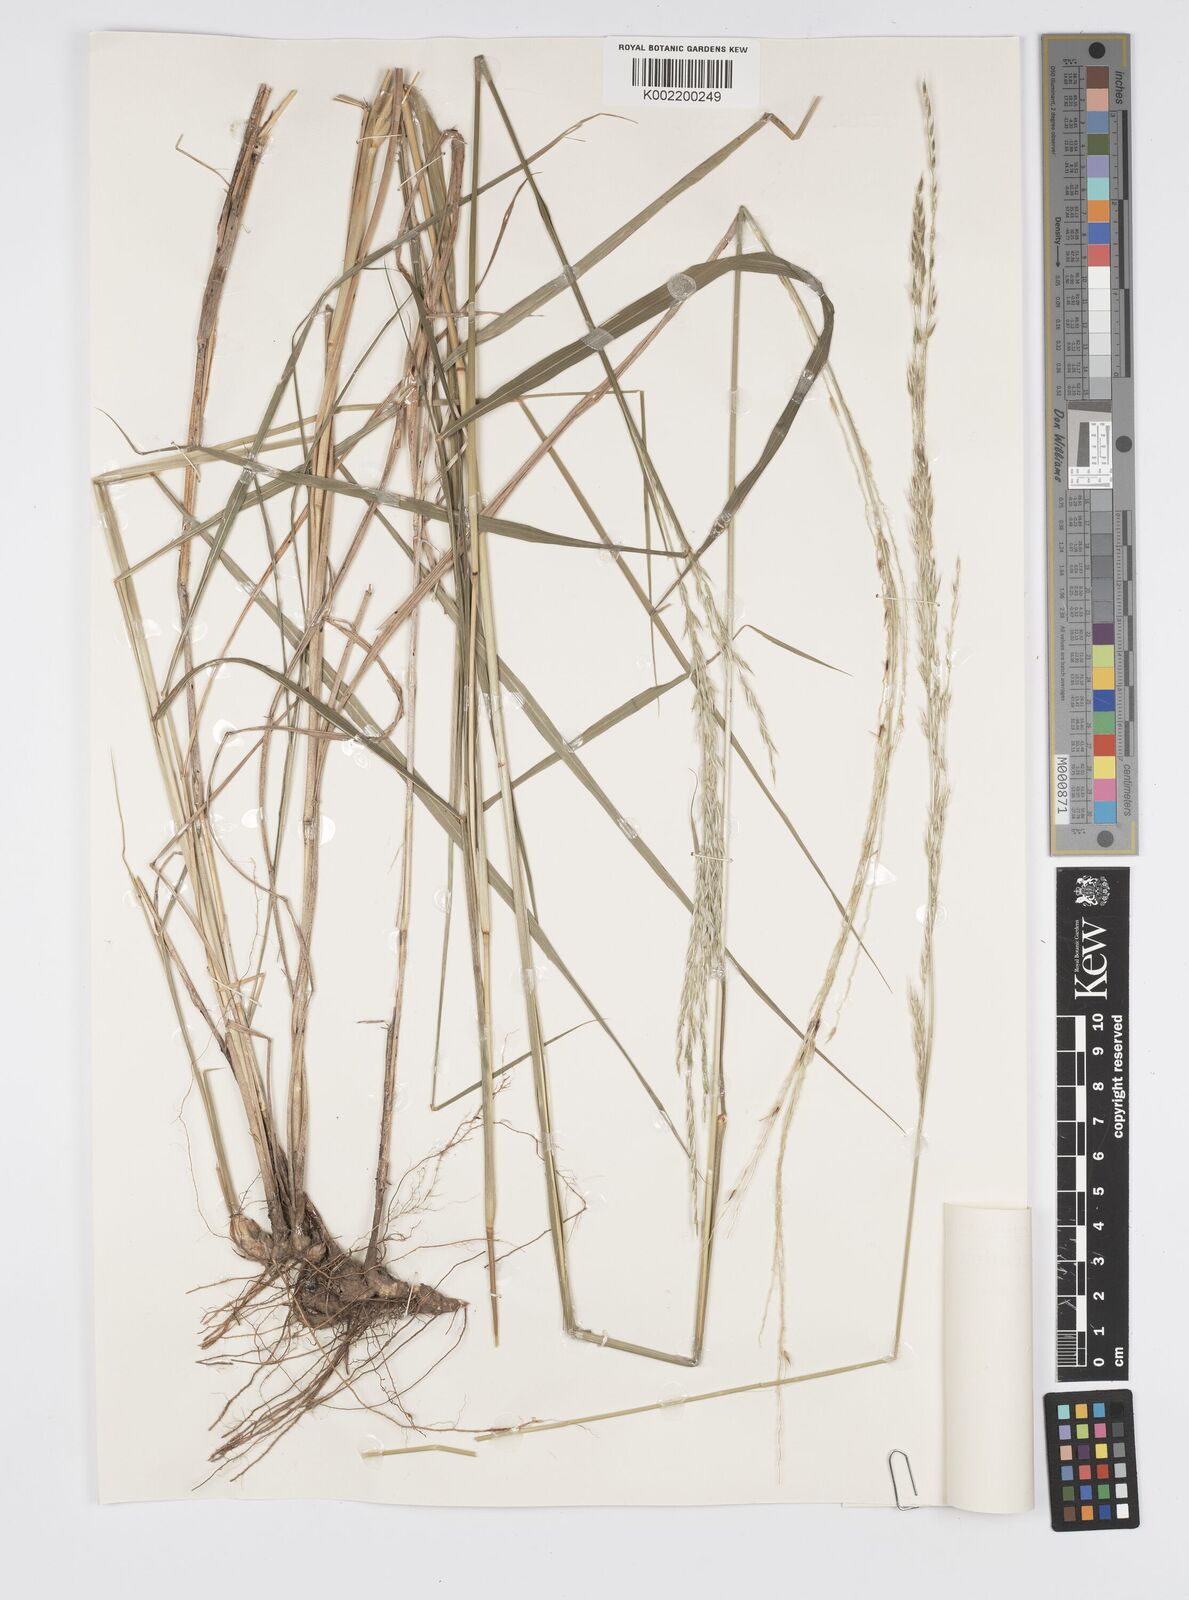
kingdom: Plantae
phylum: Tracheophyta
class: Liliopsida
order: Poales
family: Poaceae
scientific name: Poaceae
